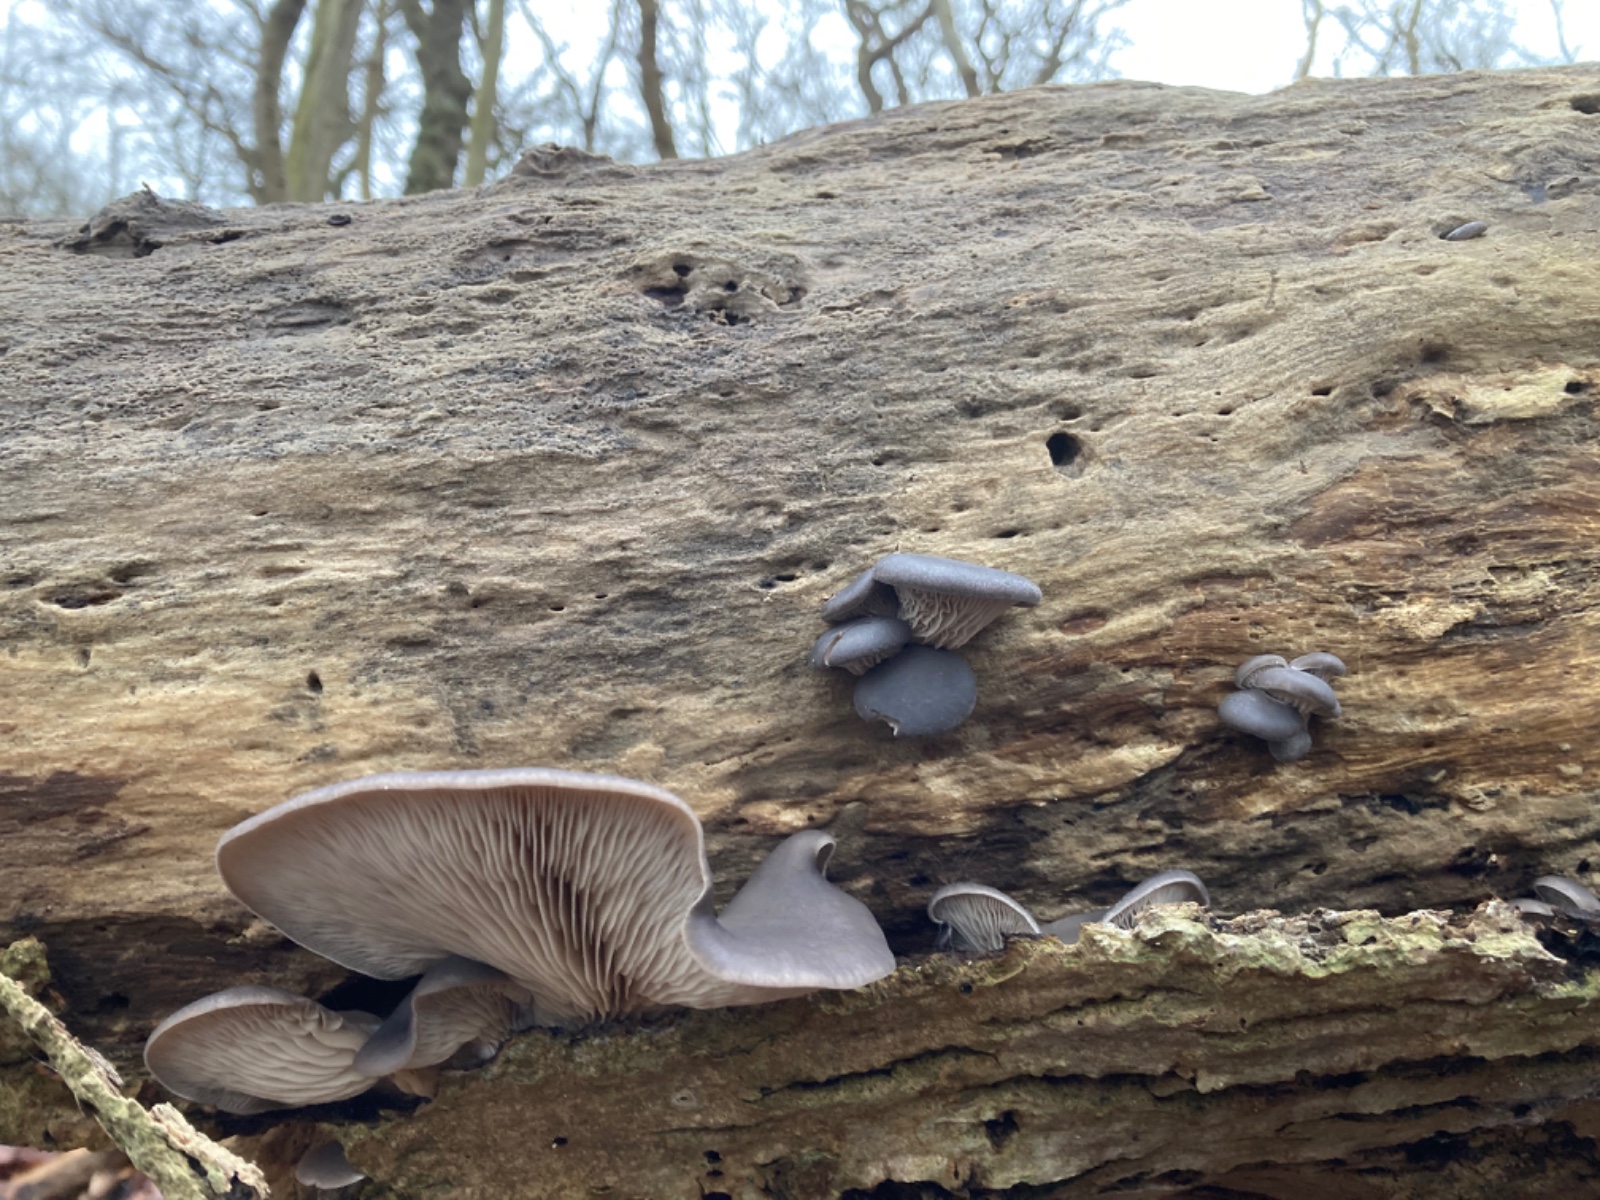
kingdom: Fungi
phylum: Basidiomycota
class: Agaricomycetes
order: Agaricales
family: Pleurotaceae
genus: Pleurotus
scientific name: Pleurotus ostreatus
